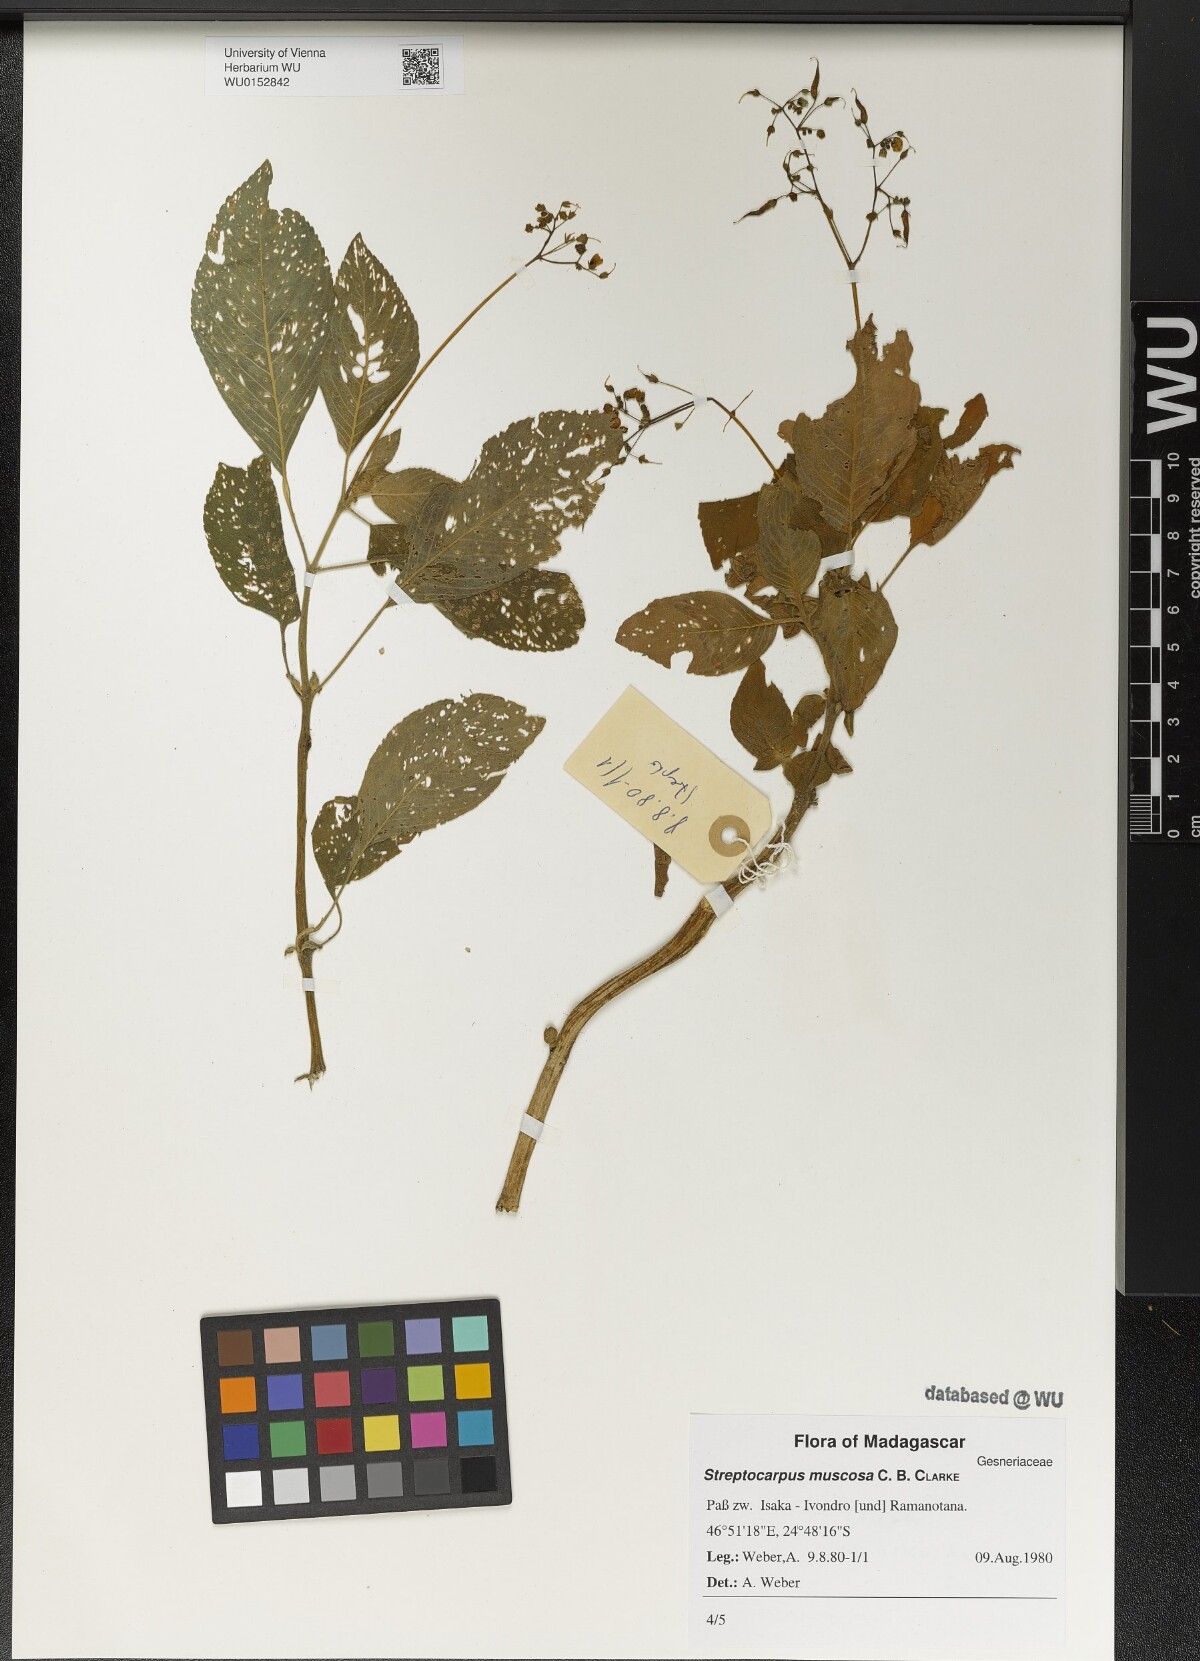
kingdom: Plantae
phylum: Tracheophyta
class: Magnoliopsida
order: Lamiales
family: Gesneriaceae
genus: Streptocarpus
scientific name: Streptocarpus muscosa
